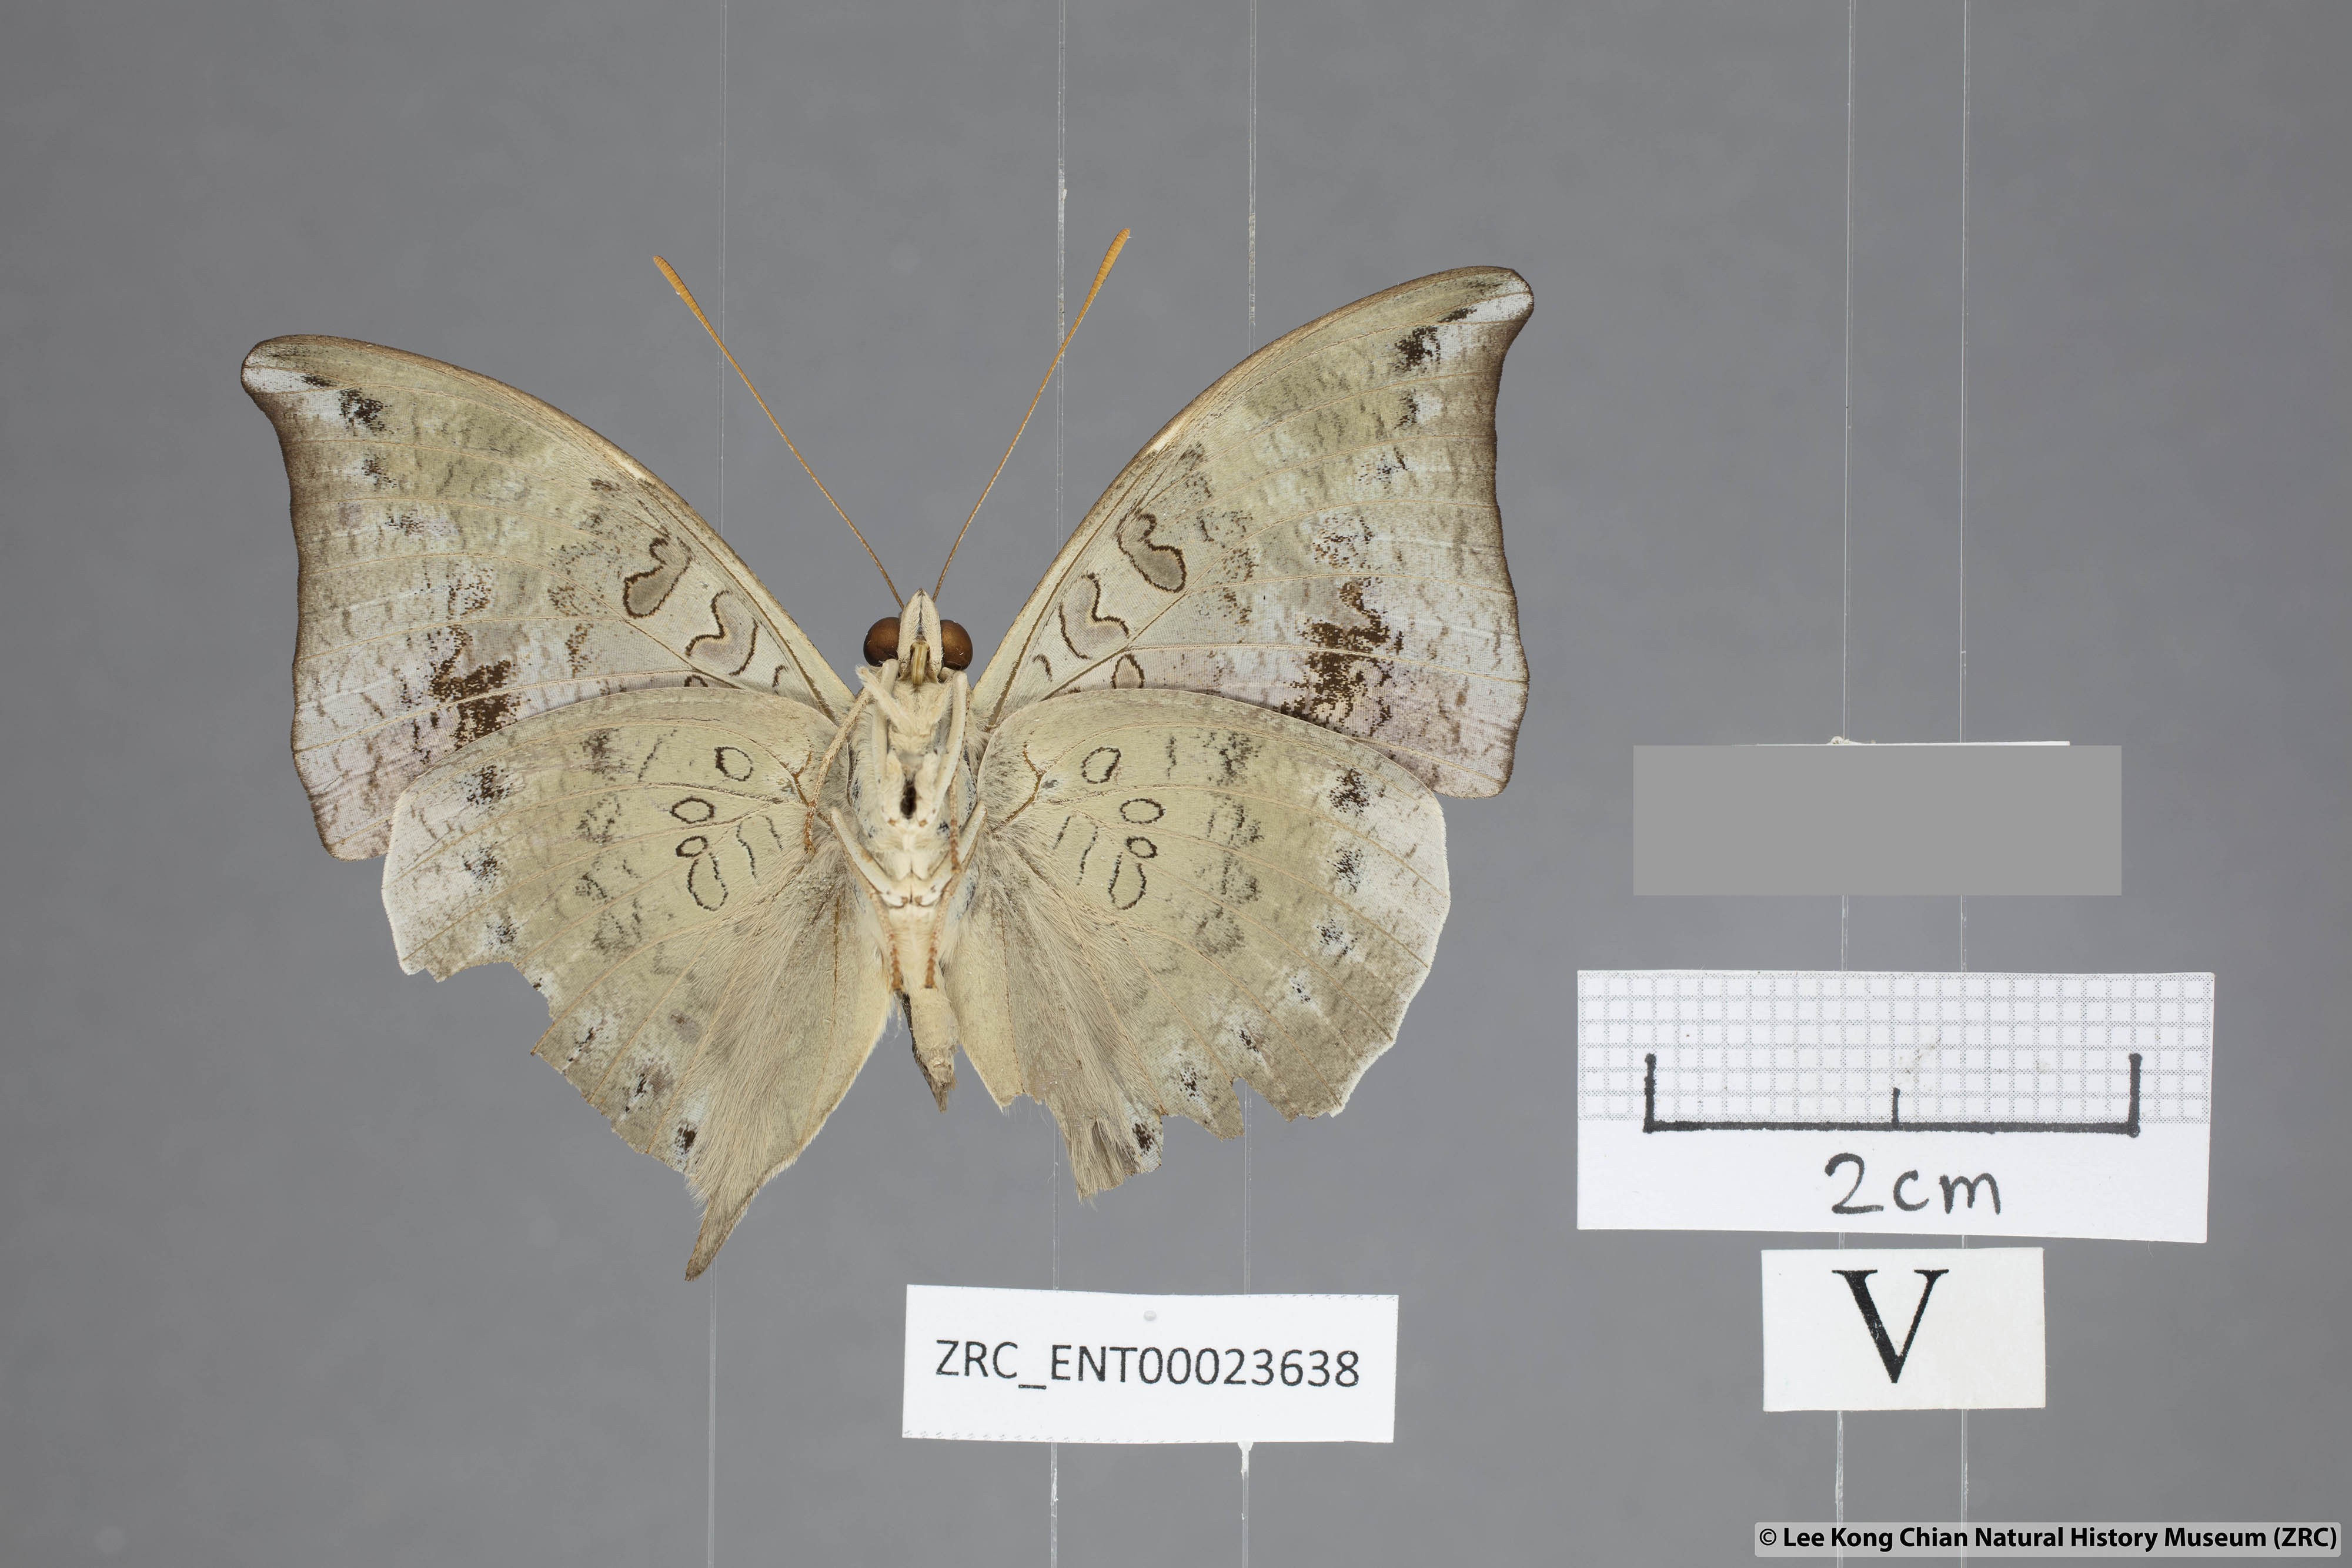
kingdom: Animalia
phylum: Arthropoda
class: Insecta
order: Lepidoptera
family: Nymphalidae
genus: Euthalia
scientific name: Euthalia anosia
